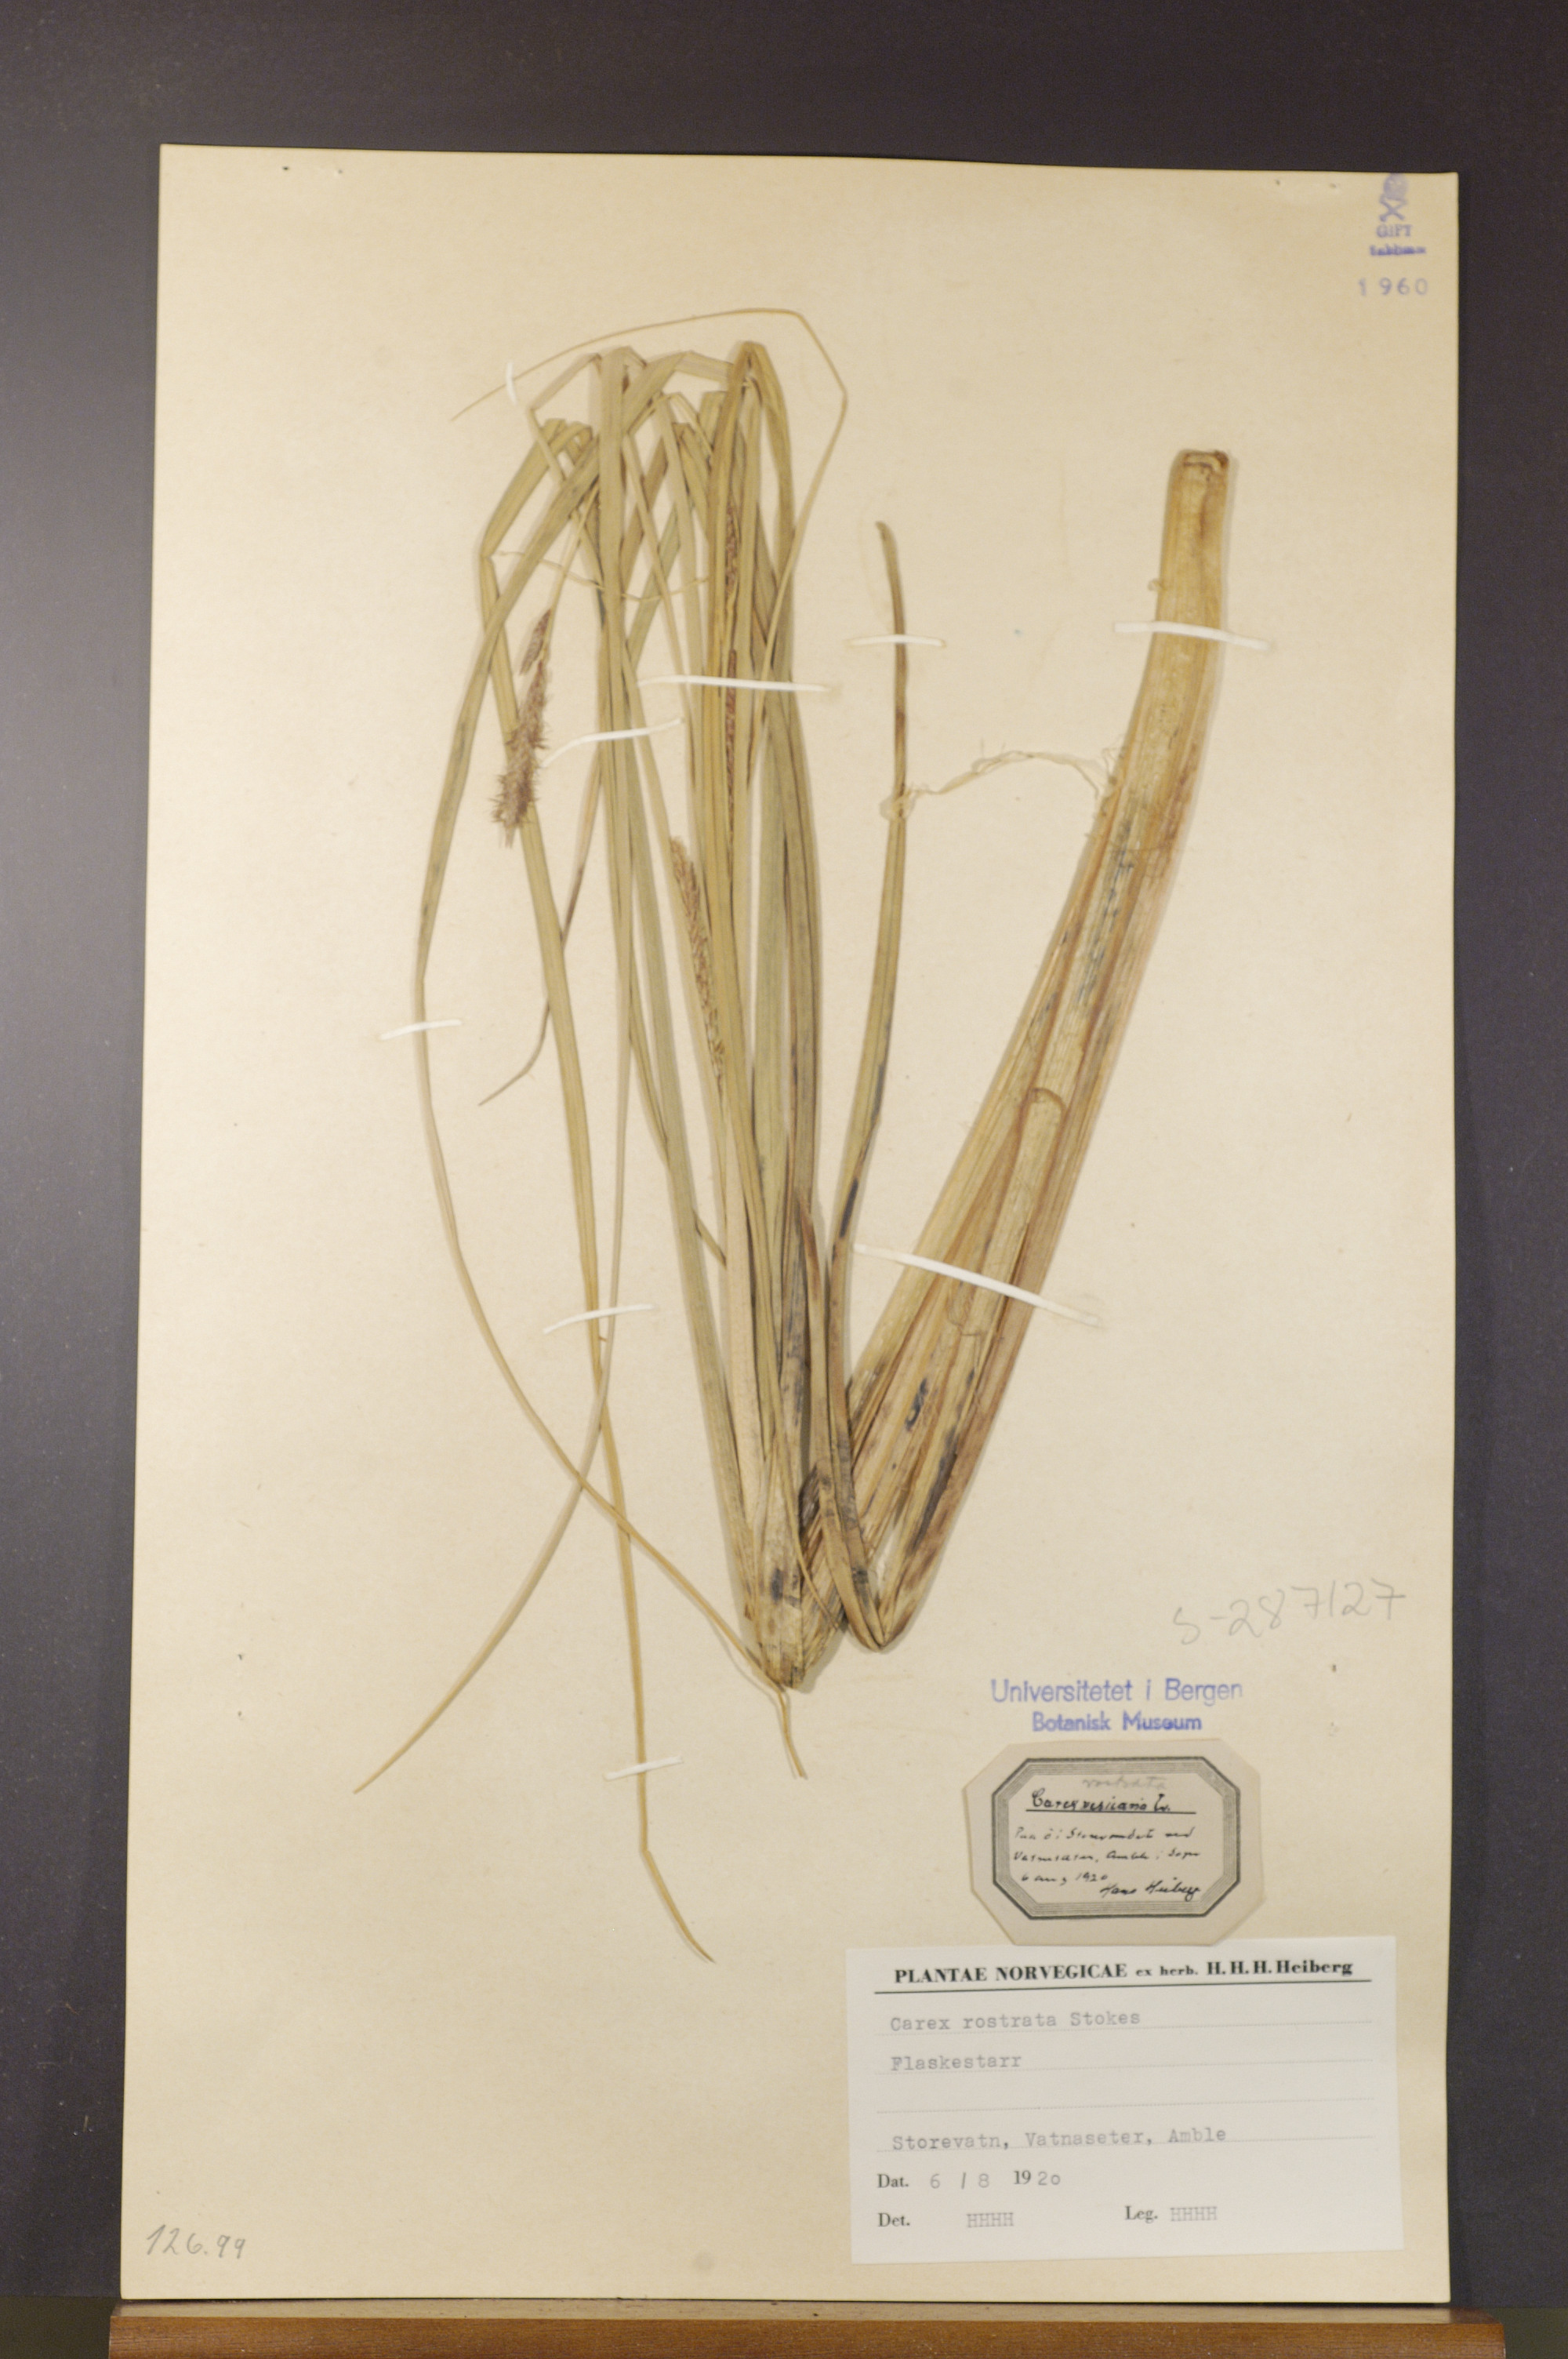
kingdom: Plantae
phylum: Tracheophyta
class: Liliopsida
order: Poales
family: Cyperaceae
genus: Carex
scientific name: Carex rostrata
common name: Bottle sedge
